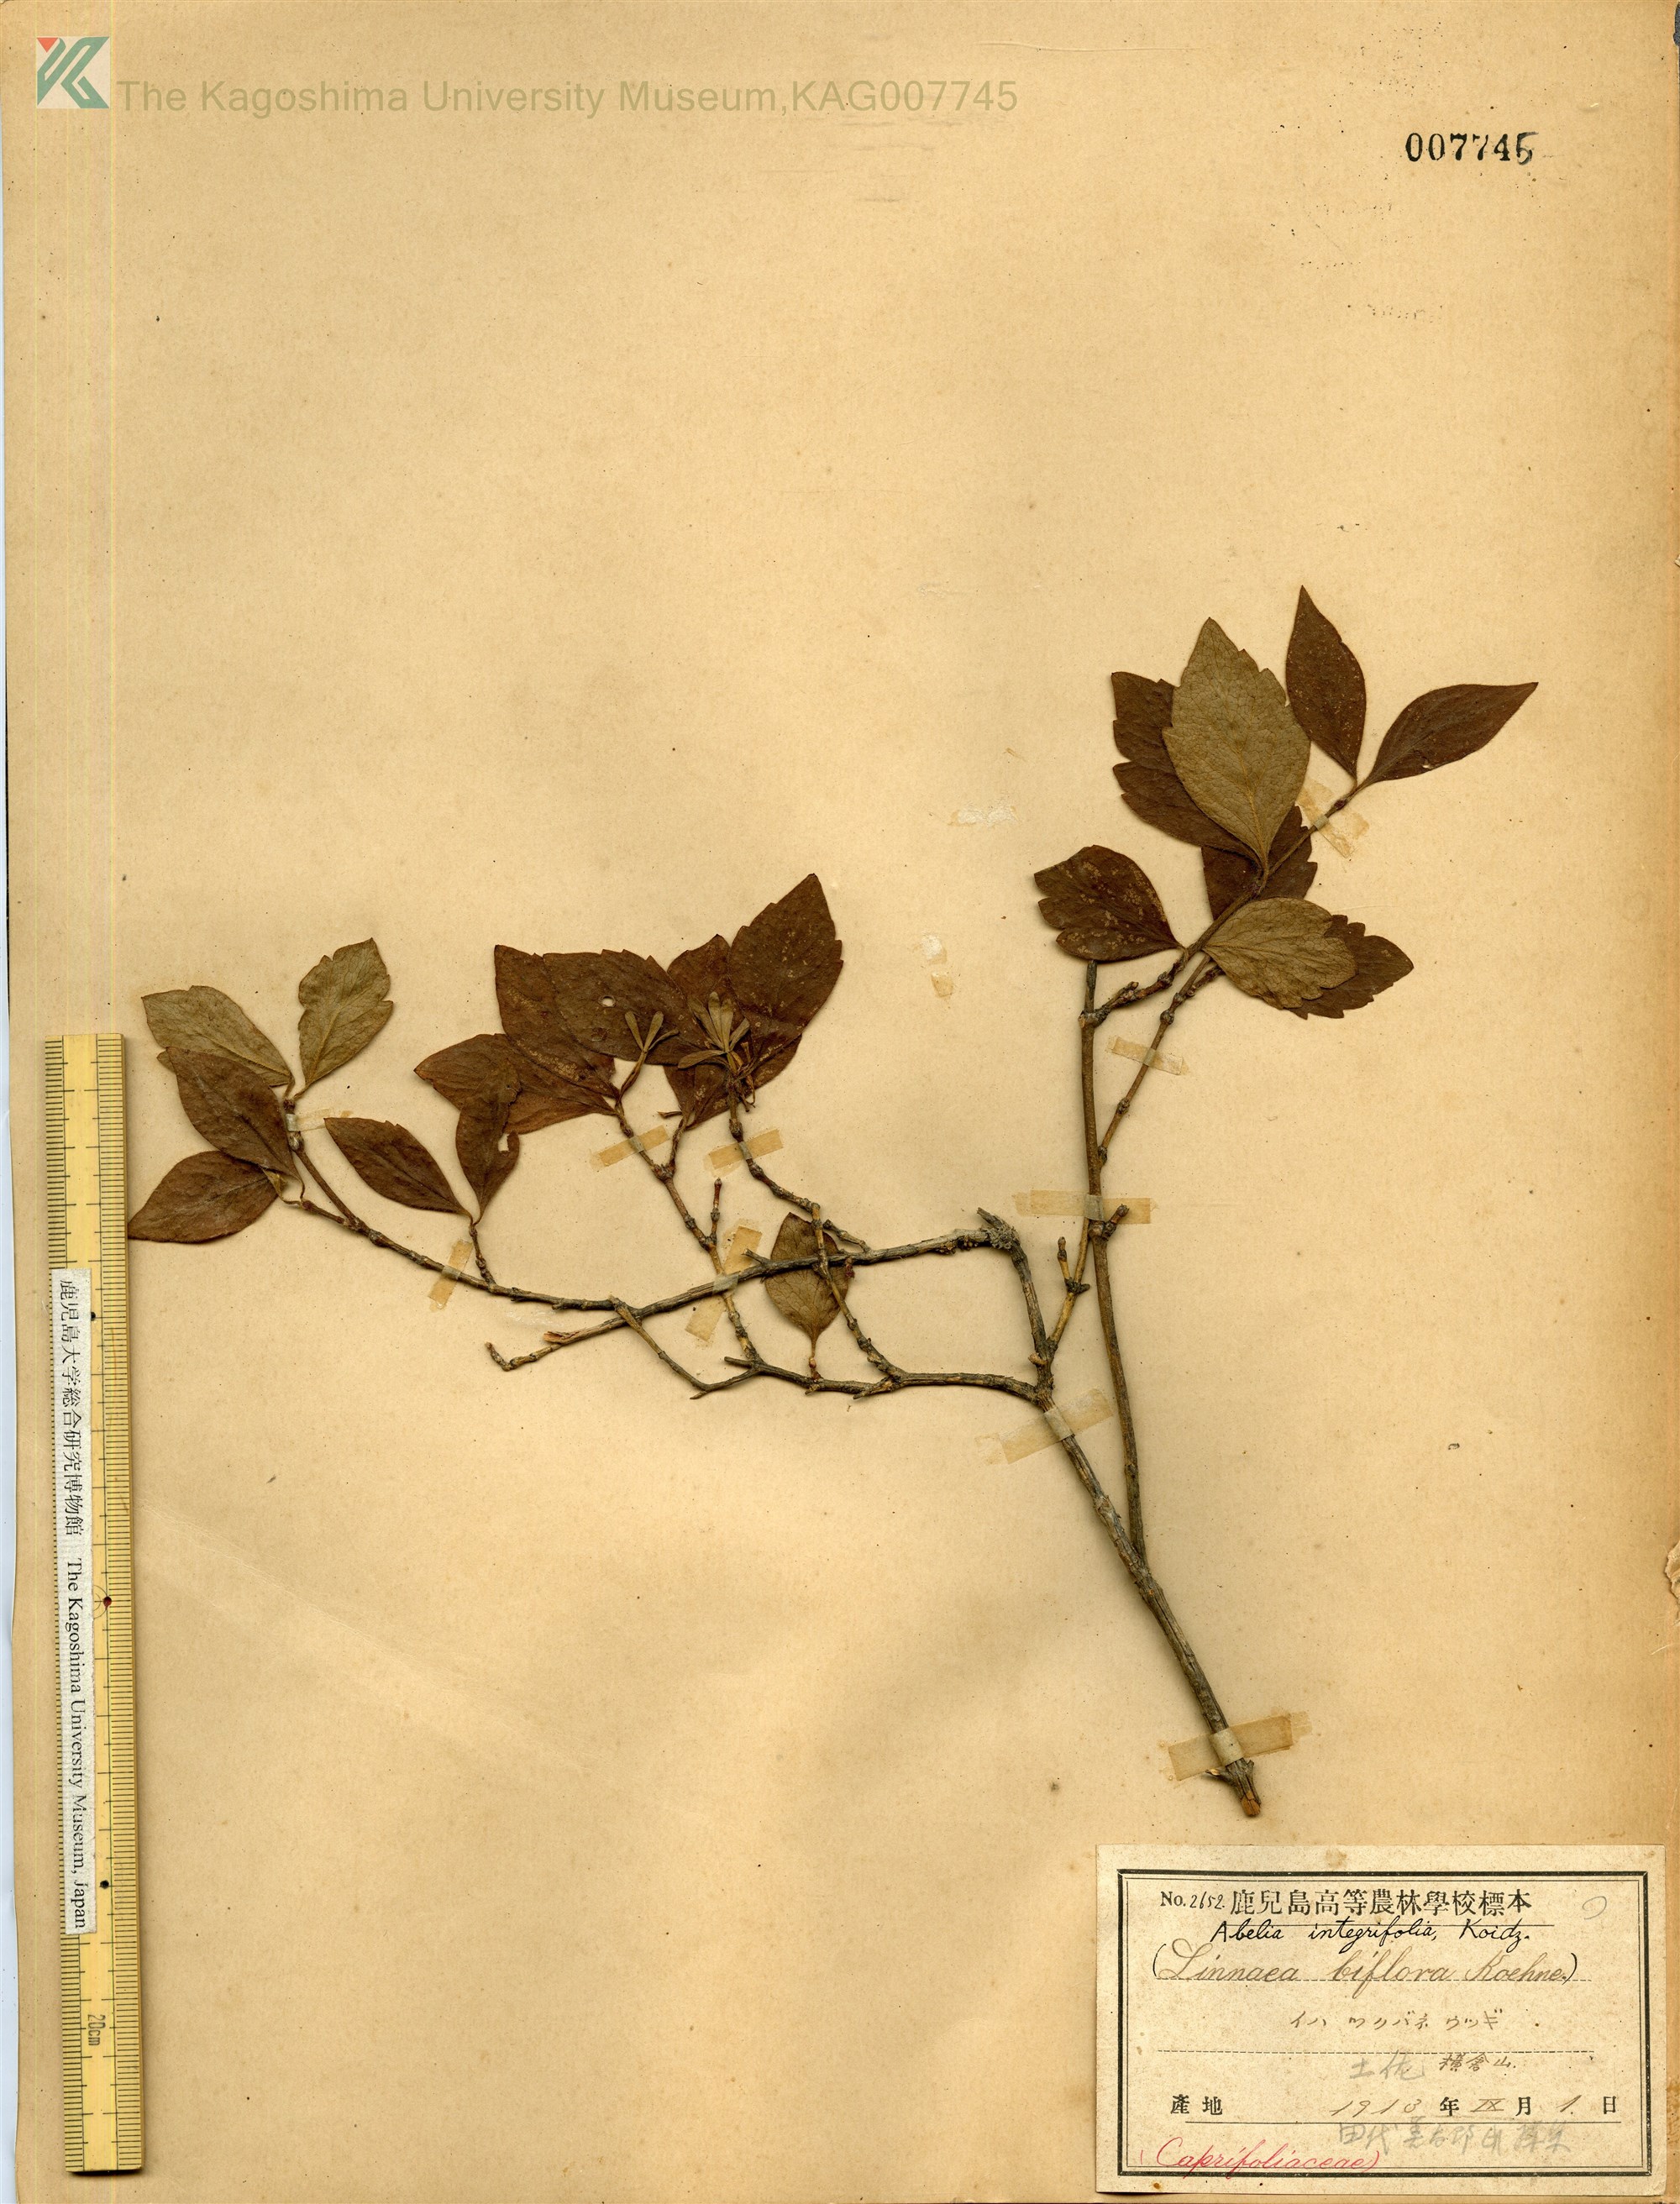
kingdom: Plantae
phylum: Tracheophyta
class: Magnoliopsida
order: Dipsacales
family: Caprifoliaceae
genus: Zabelia
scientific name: Zabelia integrifolia
